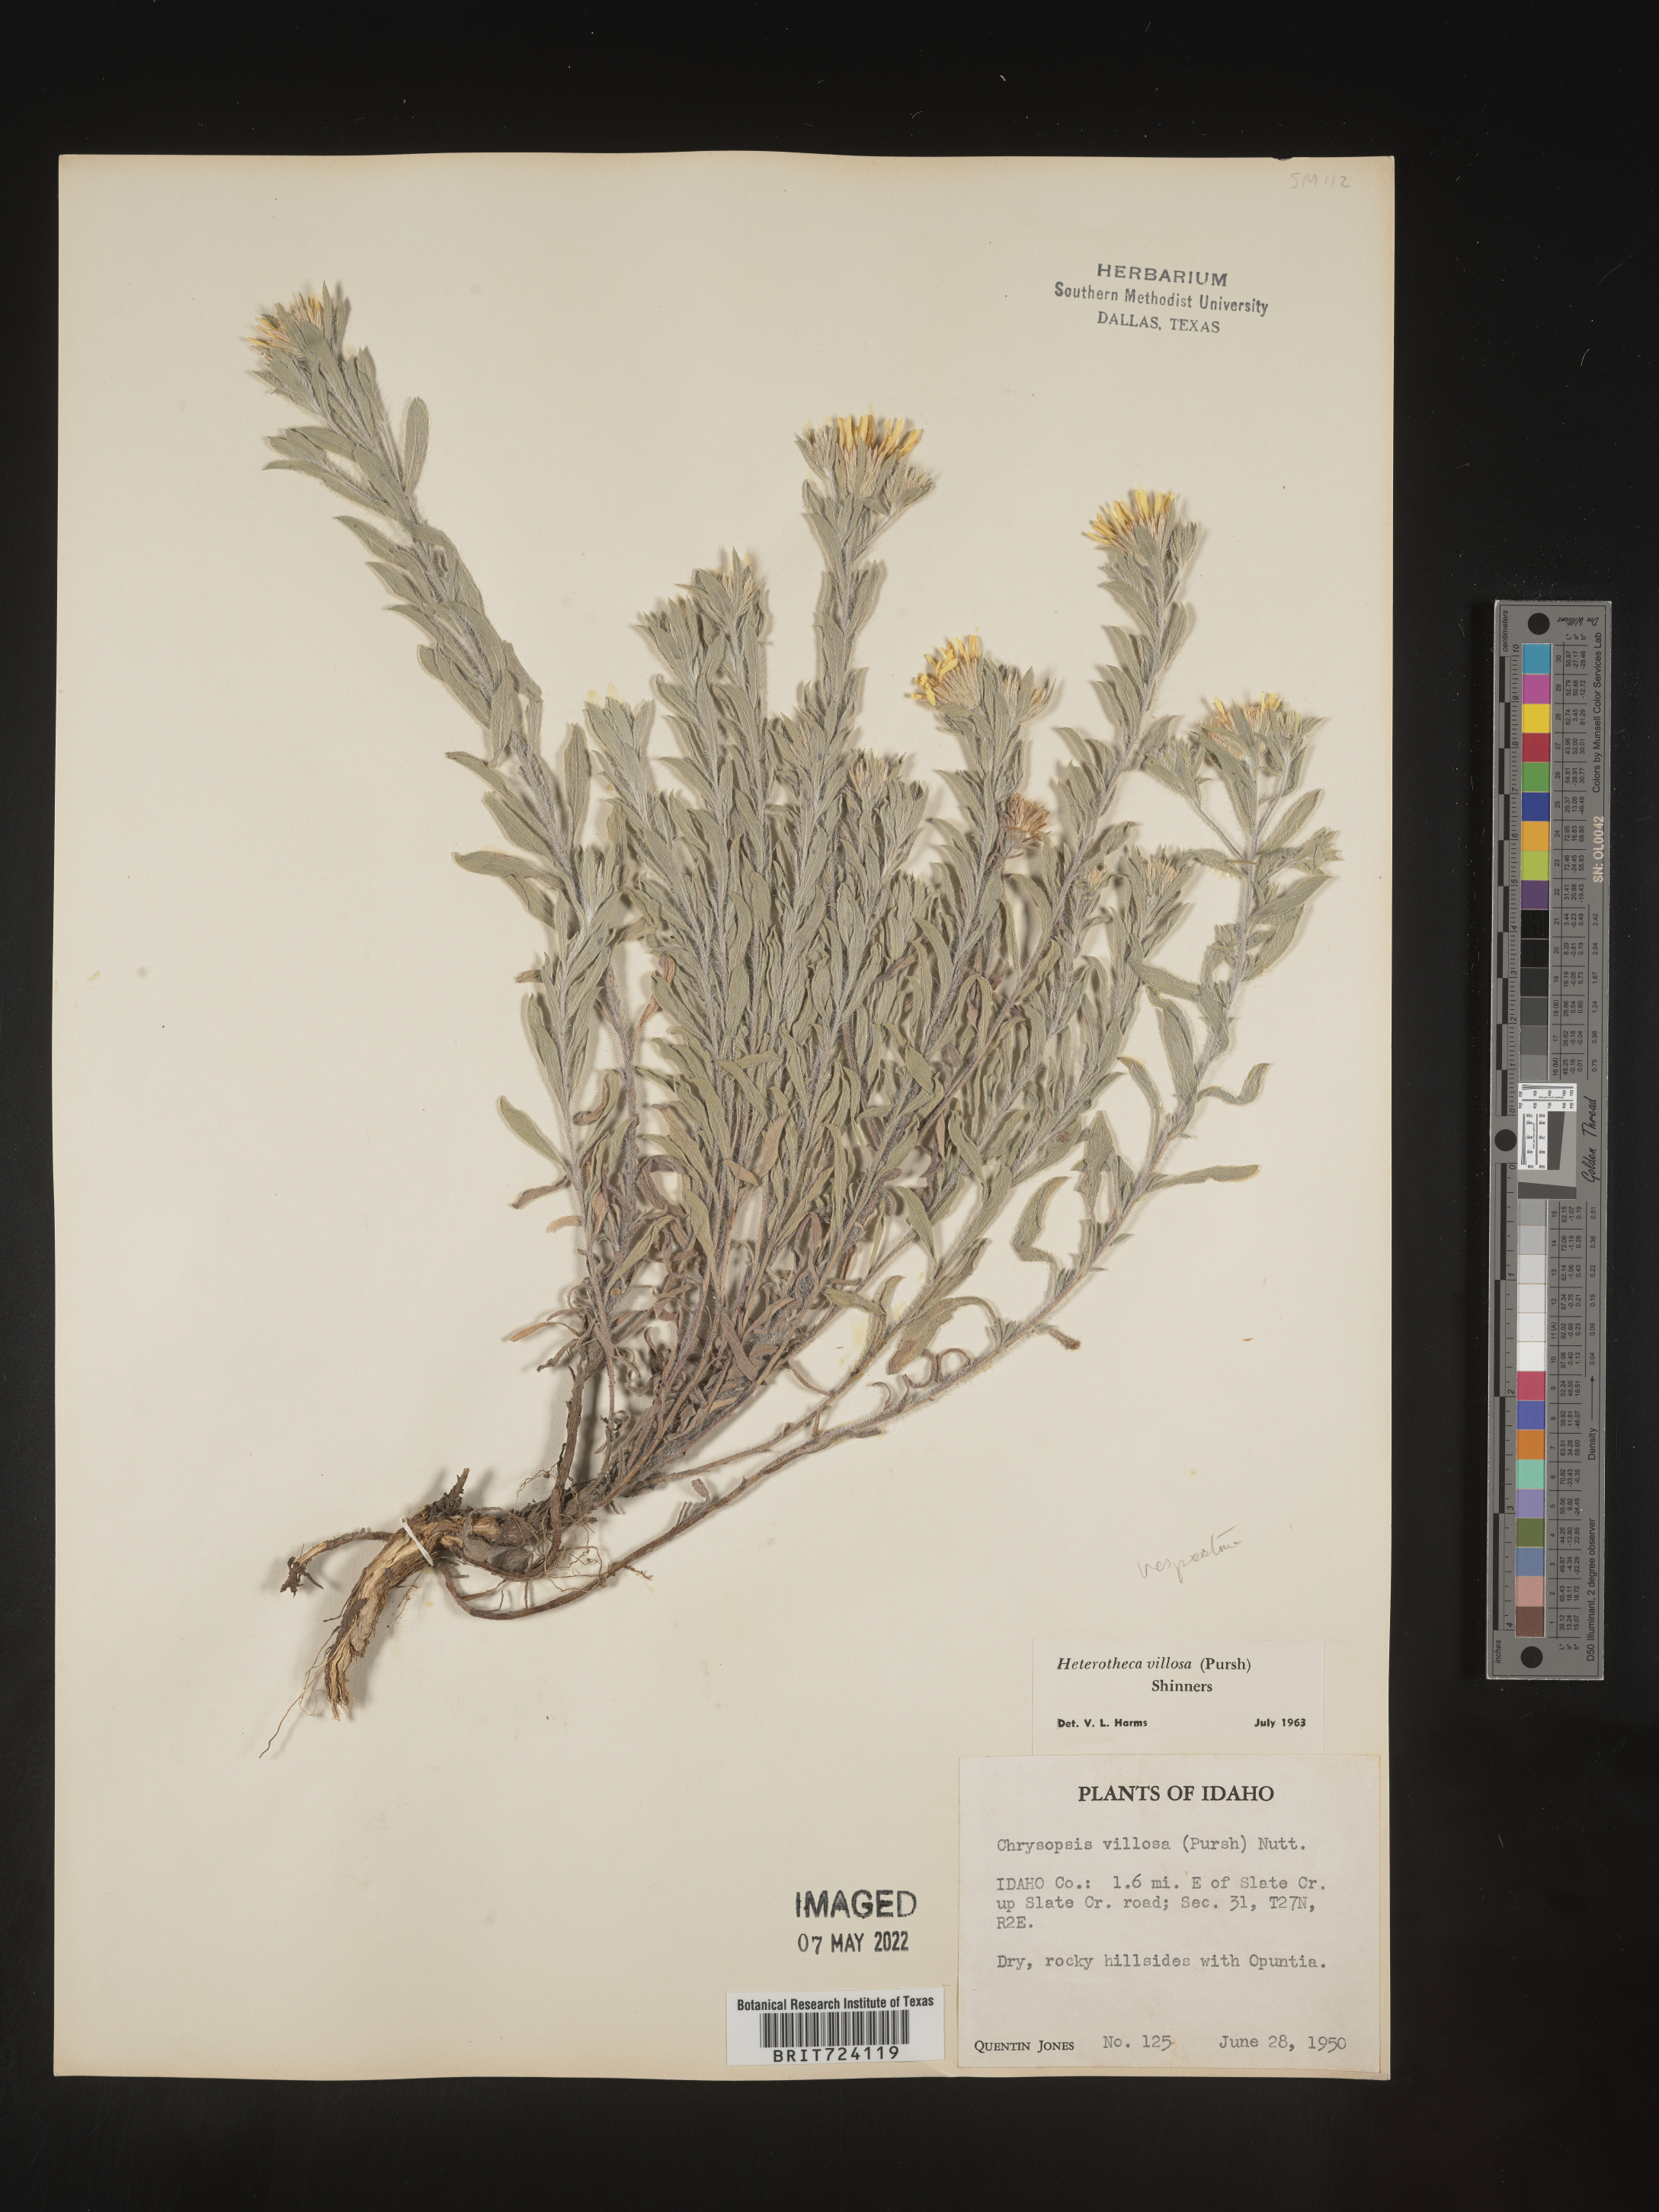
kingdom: Plantae
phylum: Tracheophyta
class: Magnoliopsida
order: Asterales
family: Asteraceae
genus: Heterotheca
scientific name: Heterotheca vespertina
